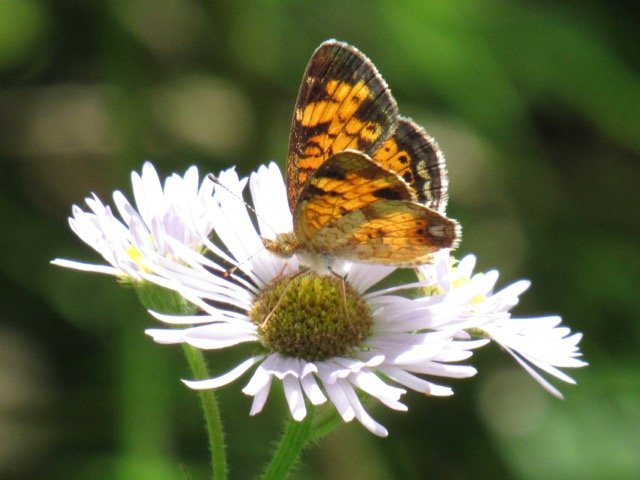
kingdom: Animalia
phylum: Arthropoda
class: Insecta
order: Lepidoptera
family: Nymphalidae
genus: Phyciodes
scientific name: Phyciodes tharos
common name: Pearl Crescent
